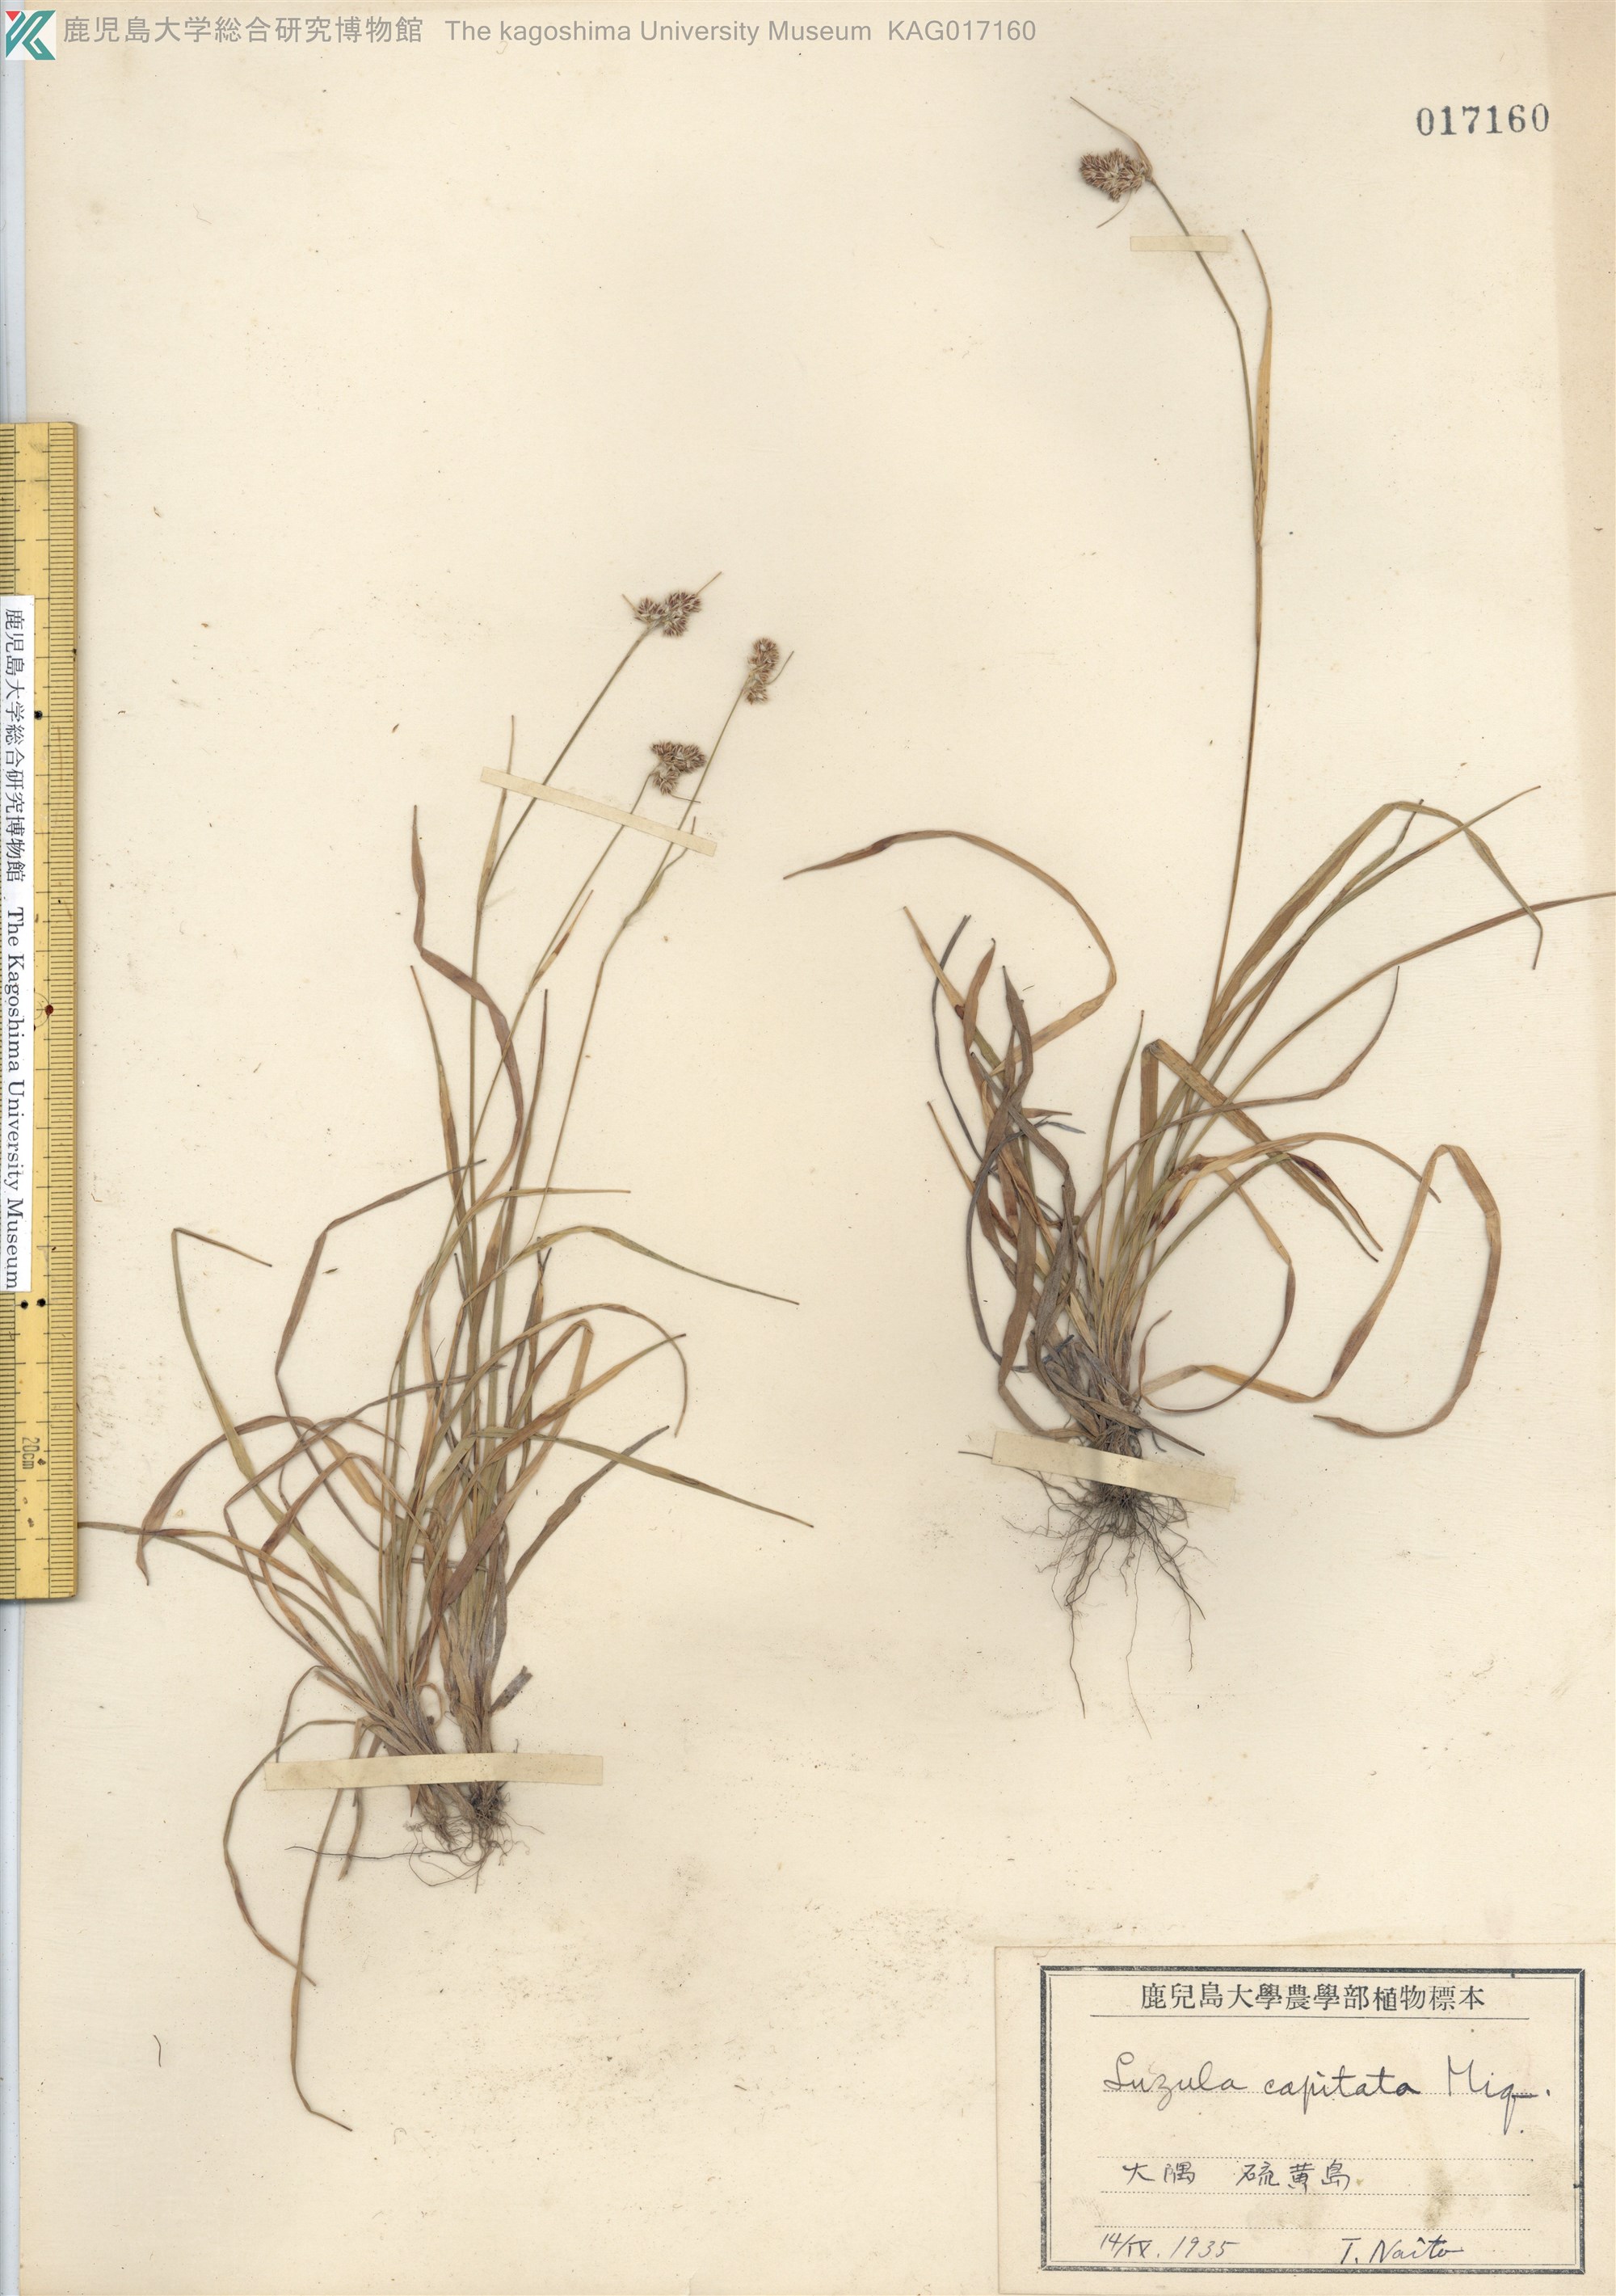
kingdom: Plantae
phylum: Tracheophyta
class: Liliopsida
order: Poales
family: Juncaceae
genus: Luzula
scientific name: Luzula capitata
